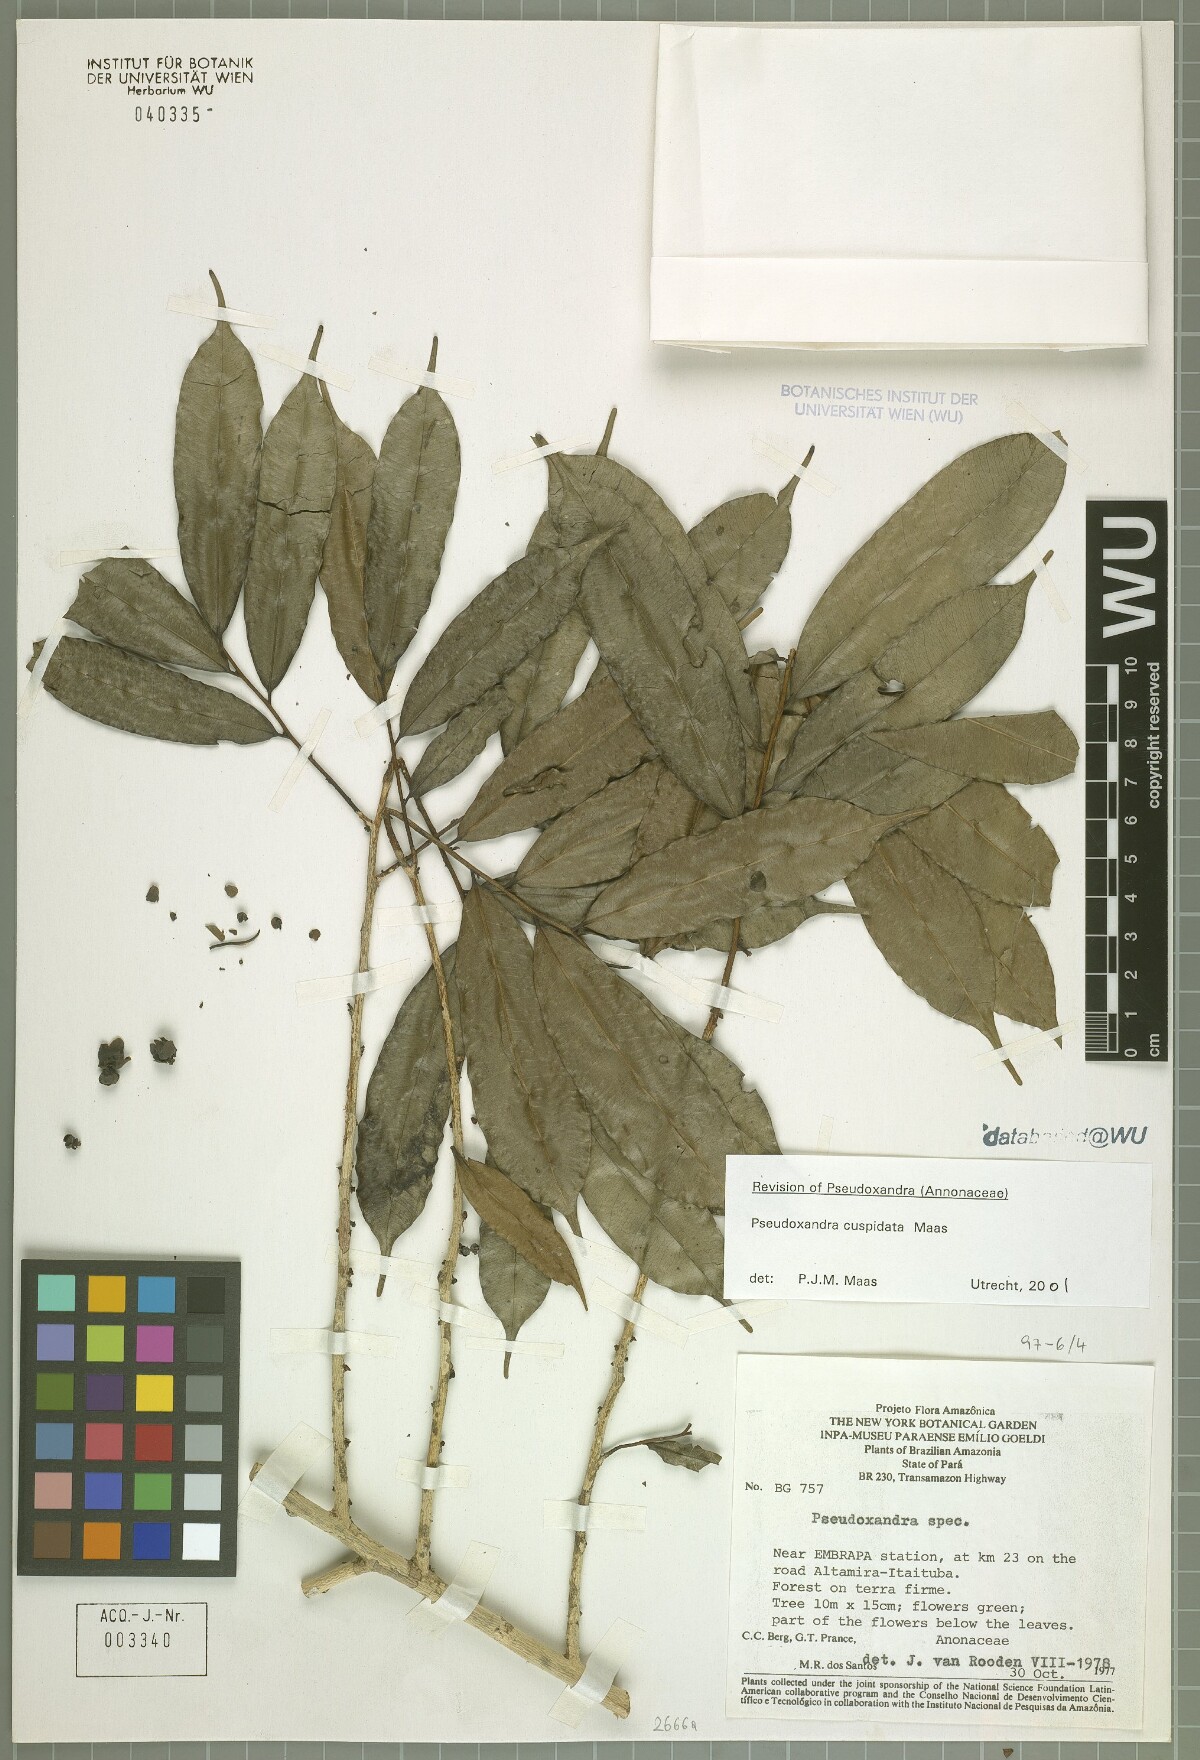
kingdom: Plantae
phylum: Tracheophyta
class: Magnoliopsida
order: Magnoliales
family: Annonaceae
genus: Pseudoxandra
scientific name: Pseudoxandra cuspidata
